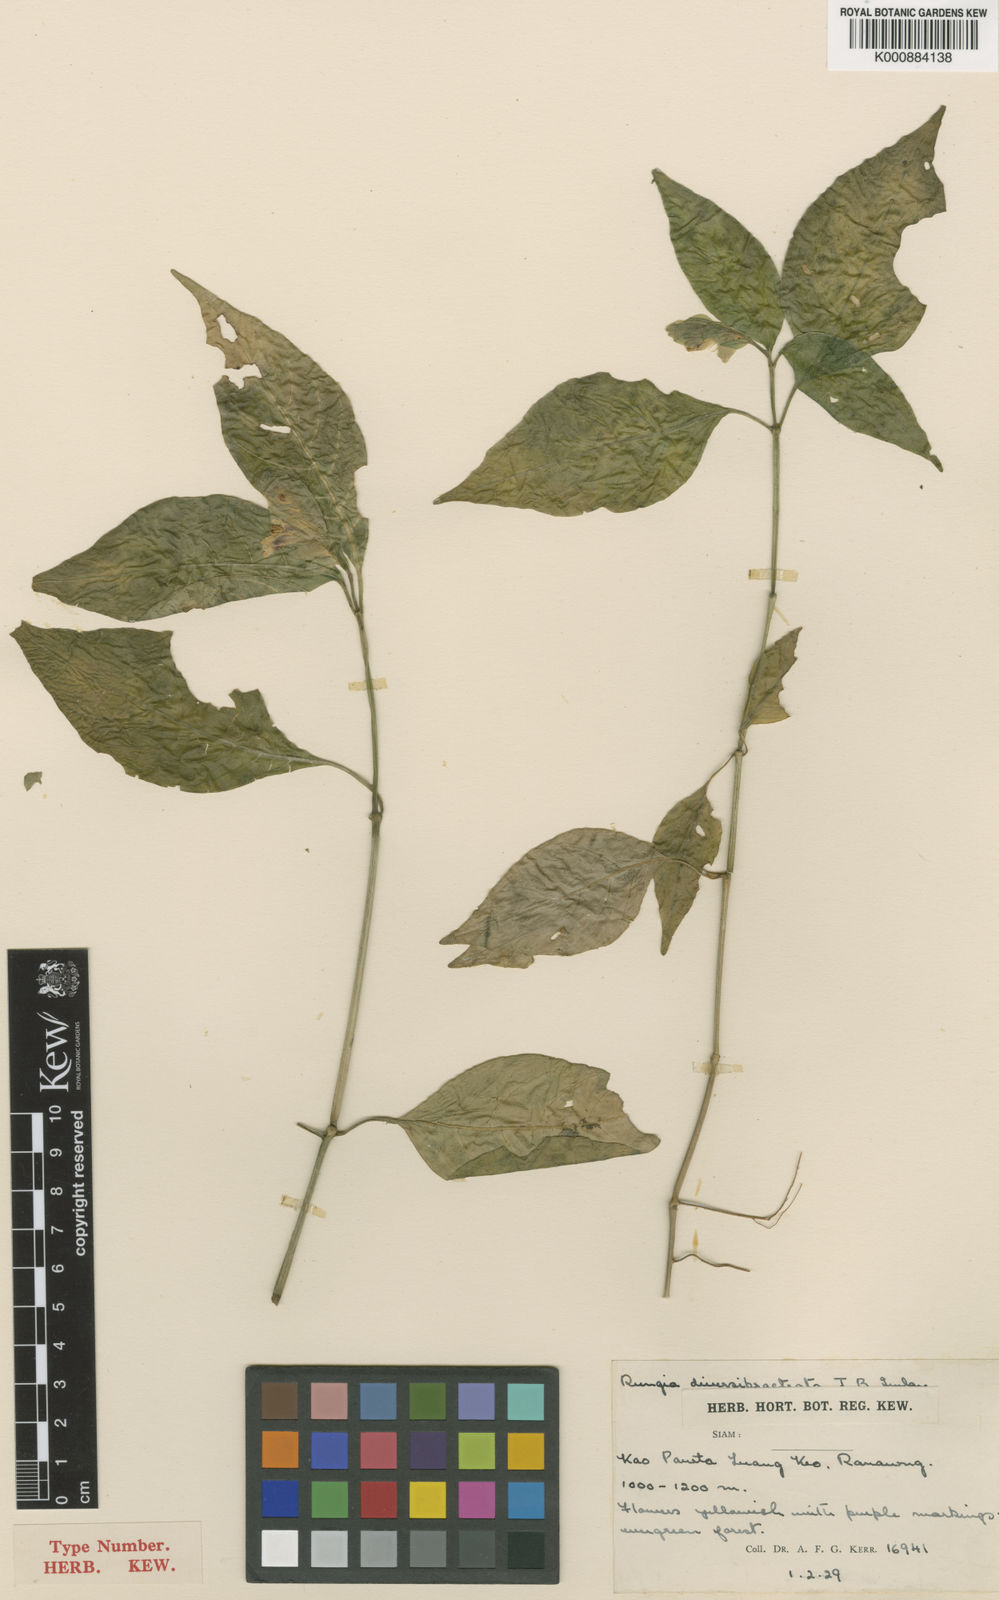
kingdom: Plantae
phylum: Tracheophyta
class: Magnoliopsida
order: Lamiales
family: Acanthaceae
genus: Justicia
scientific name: Justicia
